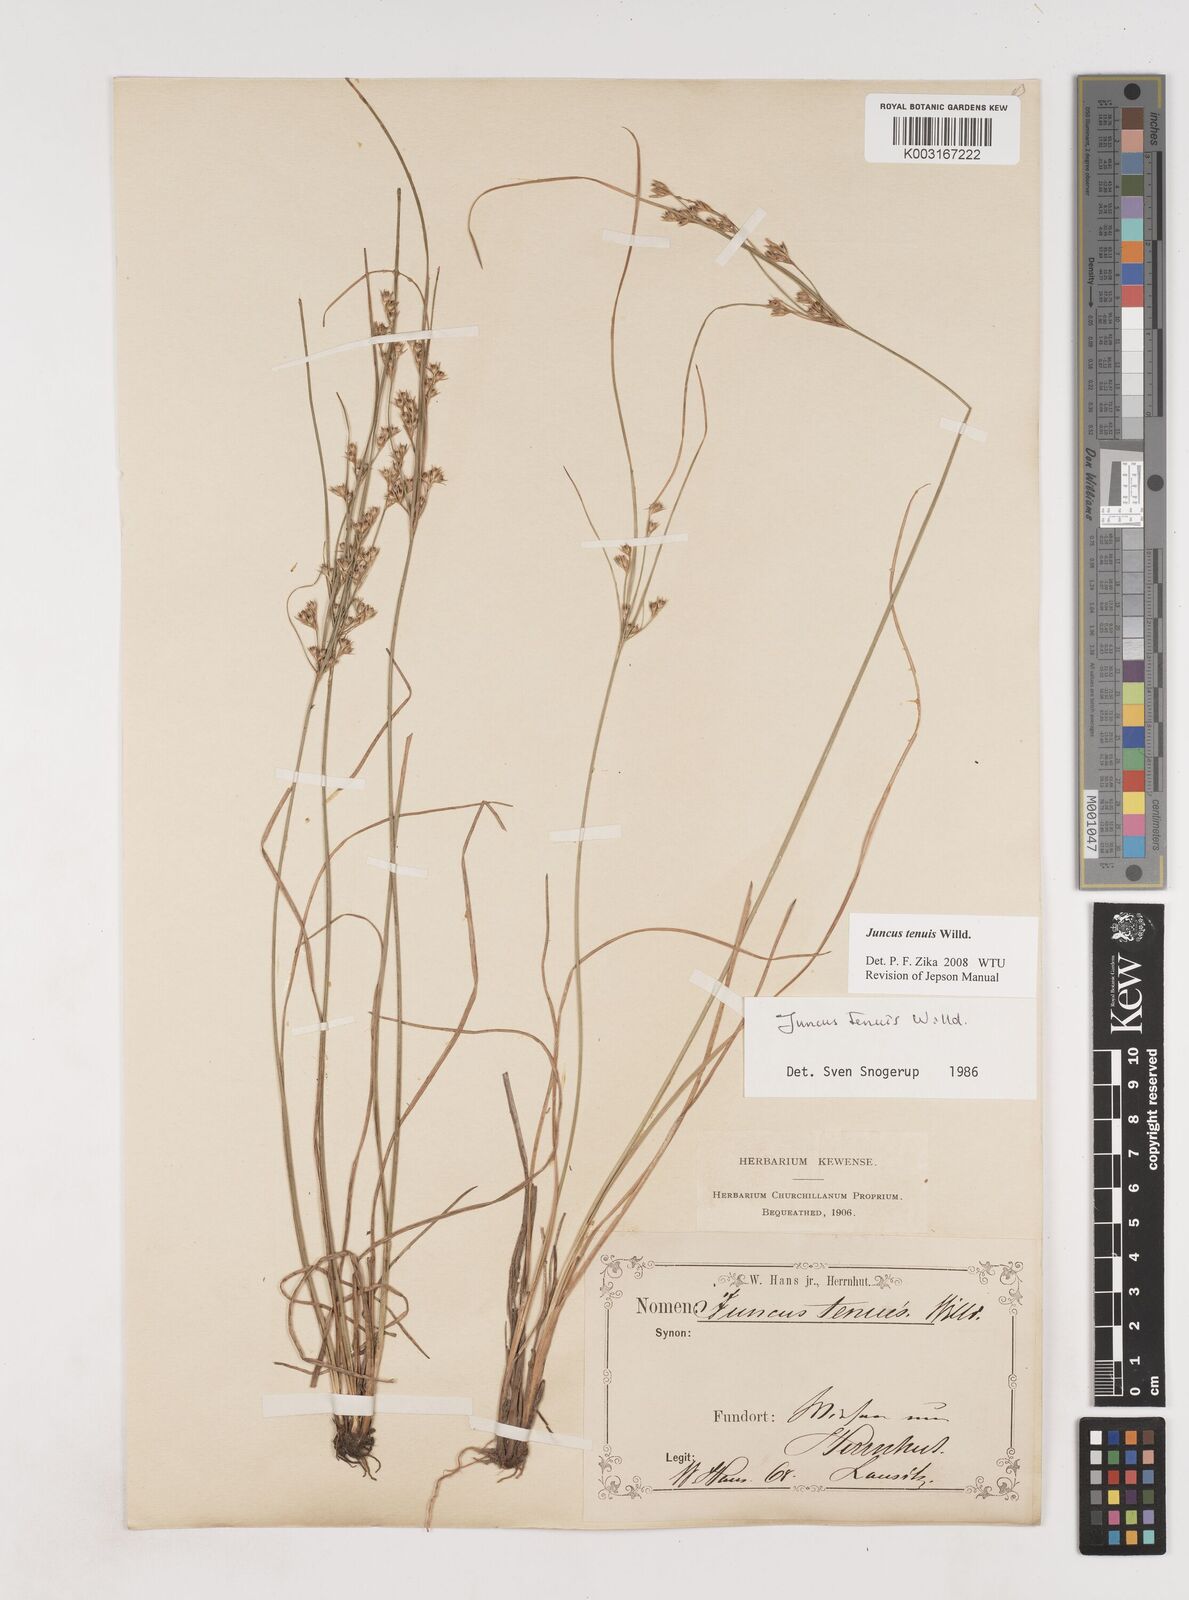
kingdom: Plantae
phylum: Tracheophyta
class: Liliopsida
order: Poales
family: Juncaceae
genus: Juncus
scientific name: Juncus tenuis
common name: Slender rush
